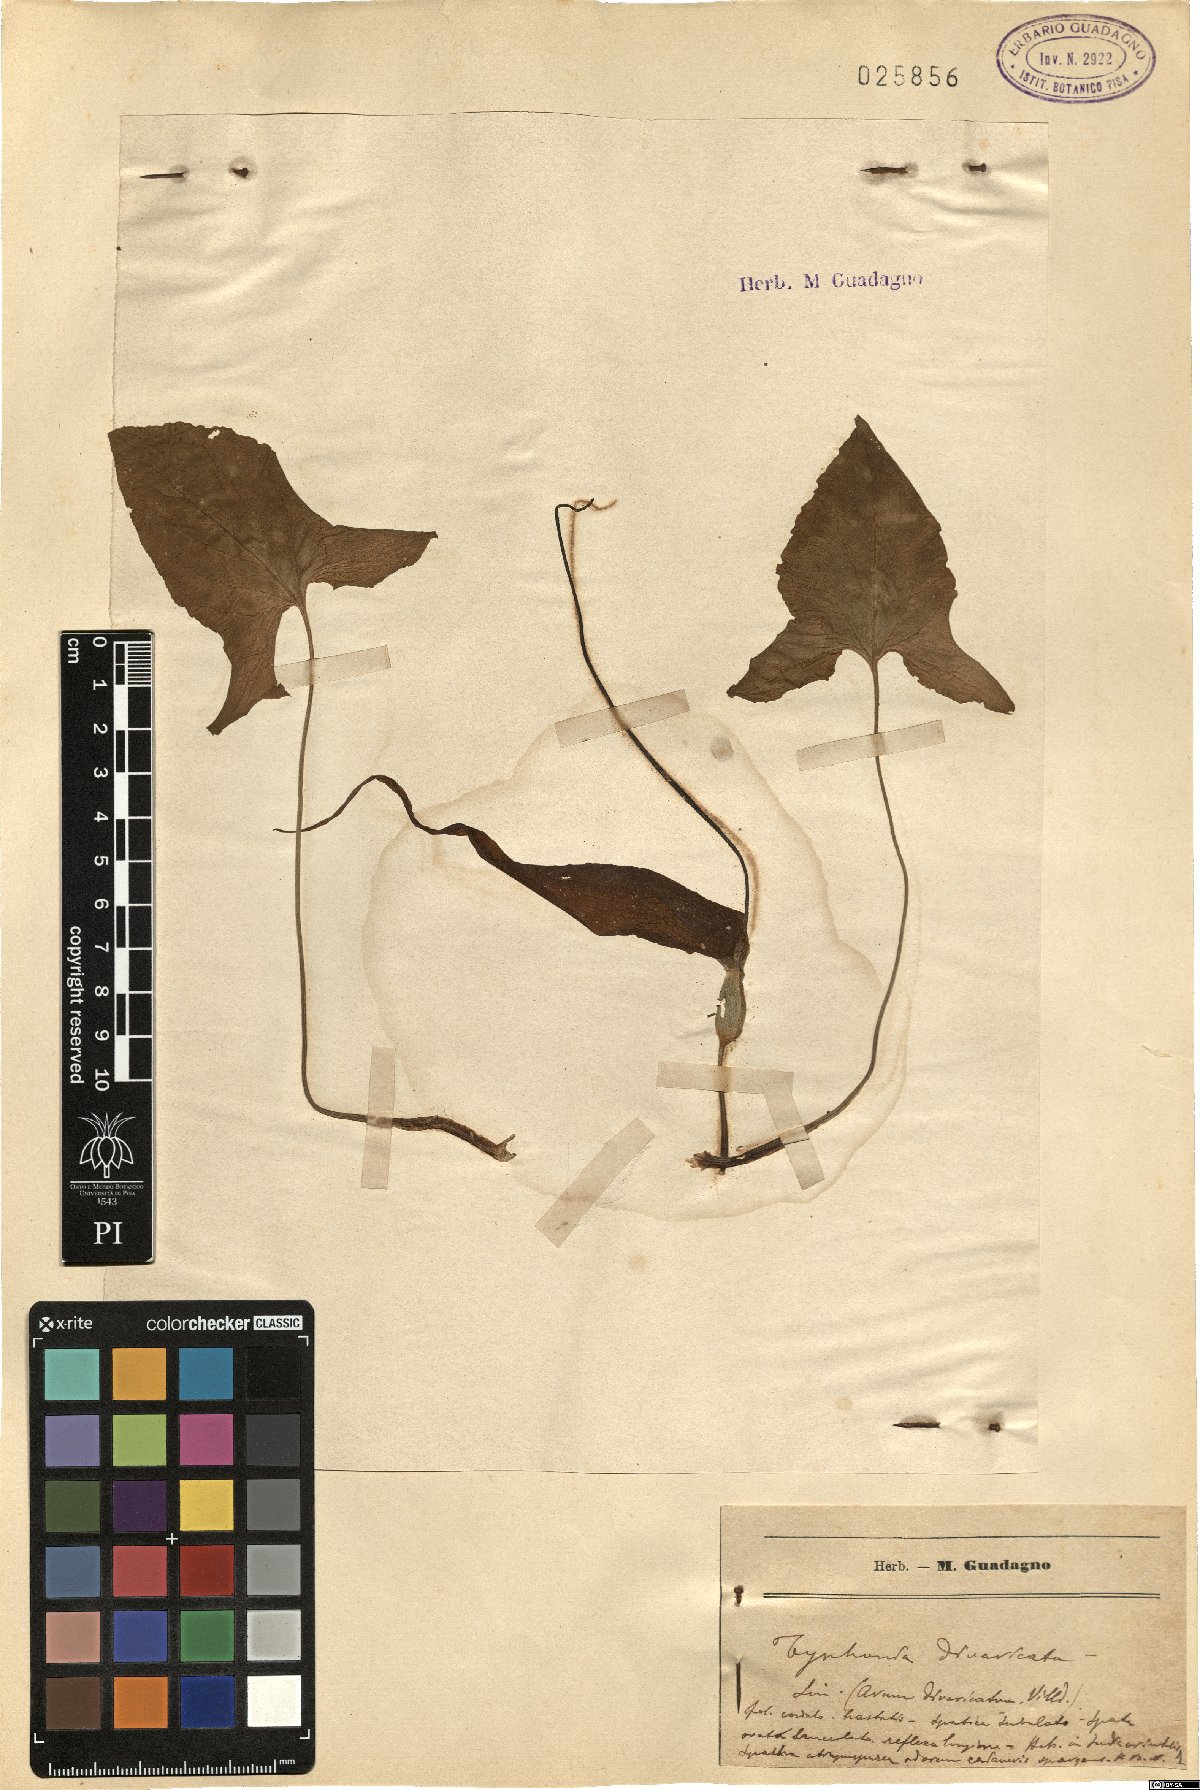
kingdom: Plantae
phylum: Tracheophyta
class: Liliopsida
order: Alismatales
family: Araceae
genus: Typhonium
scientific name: Typhonium roxburghii
